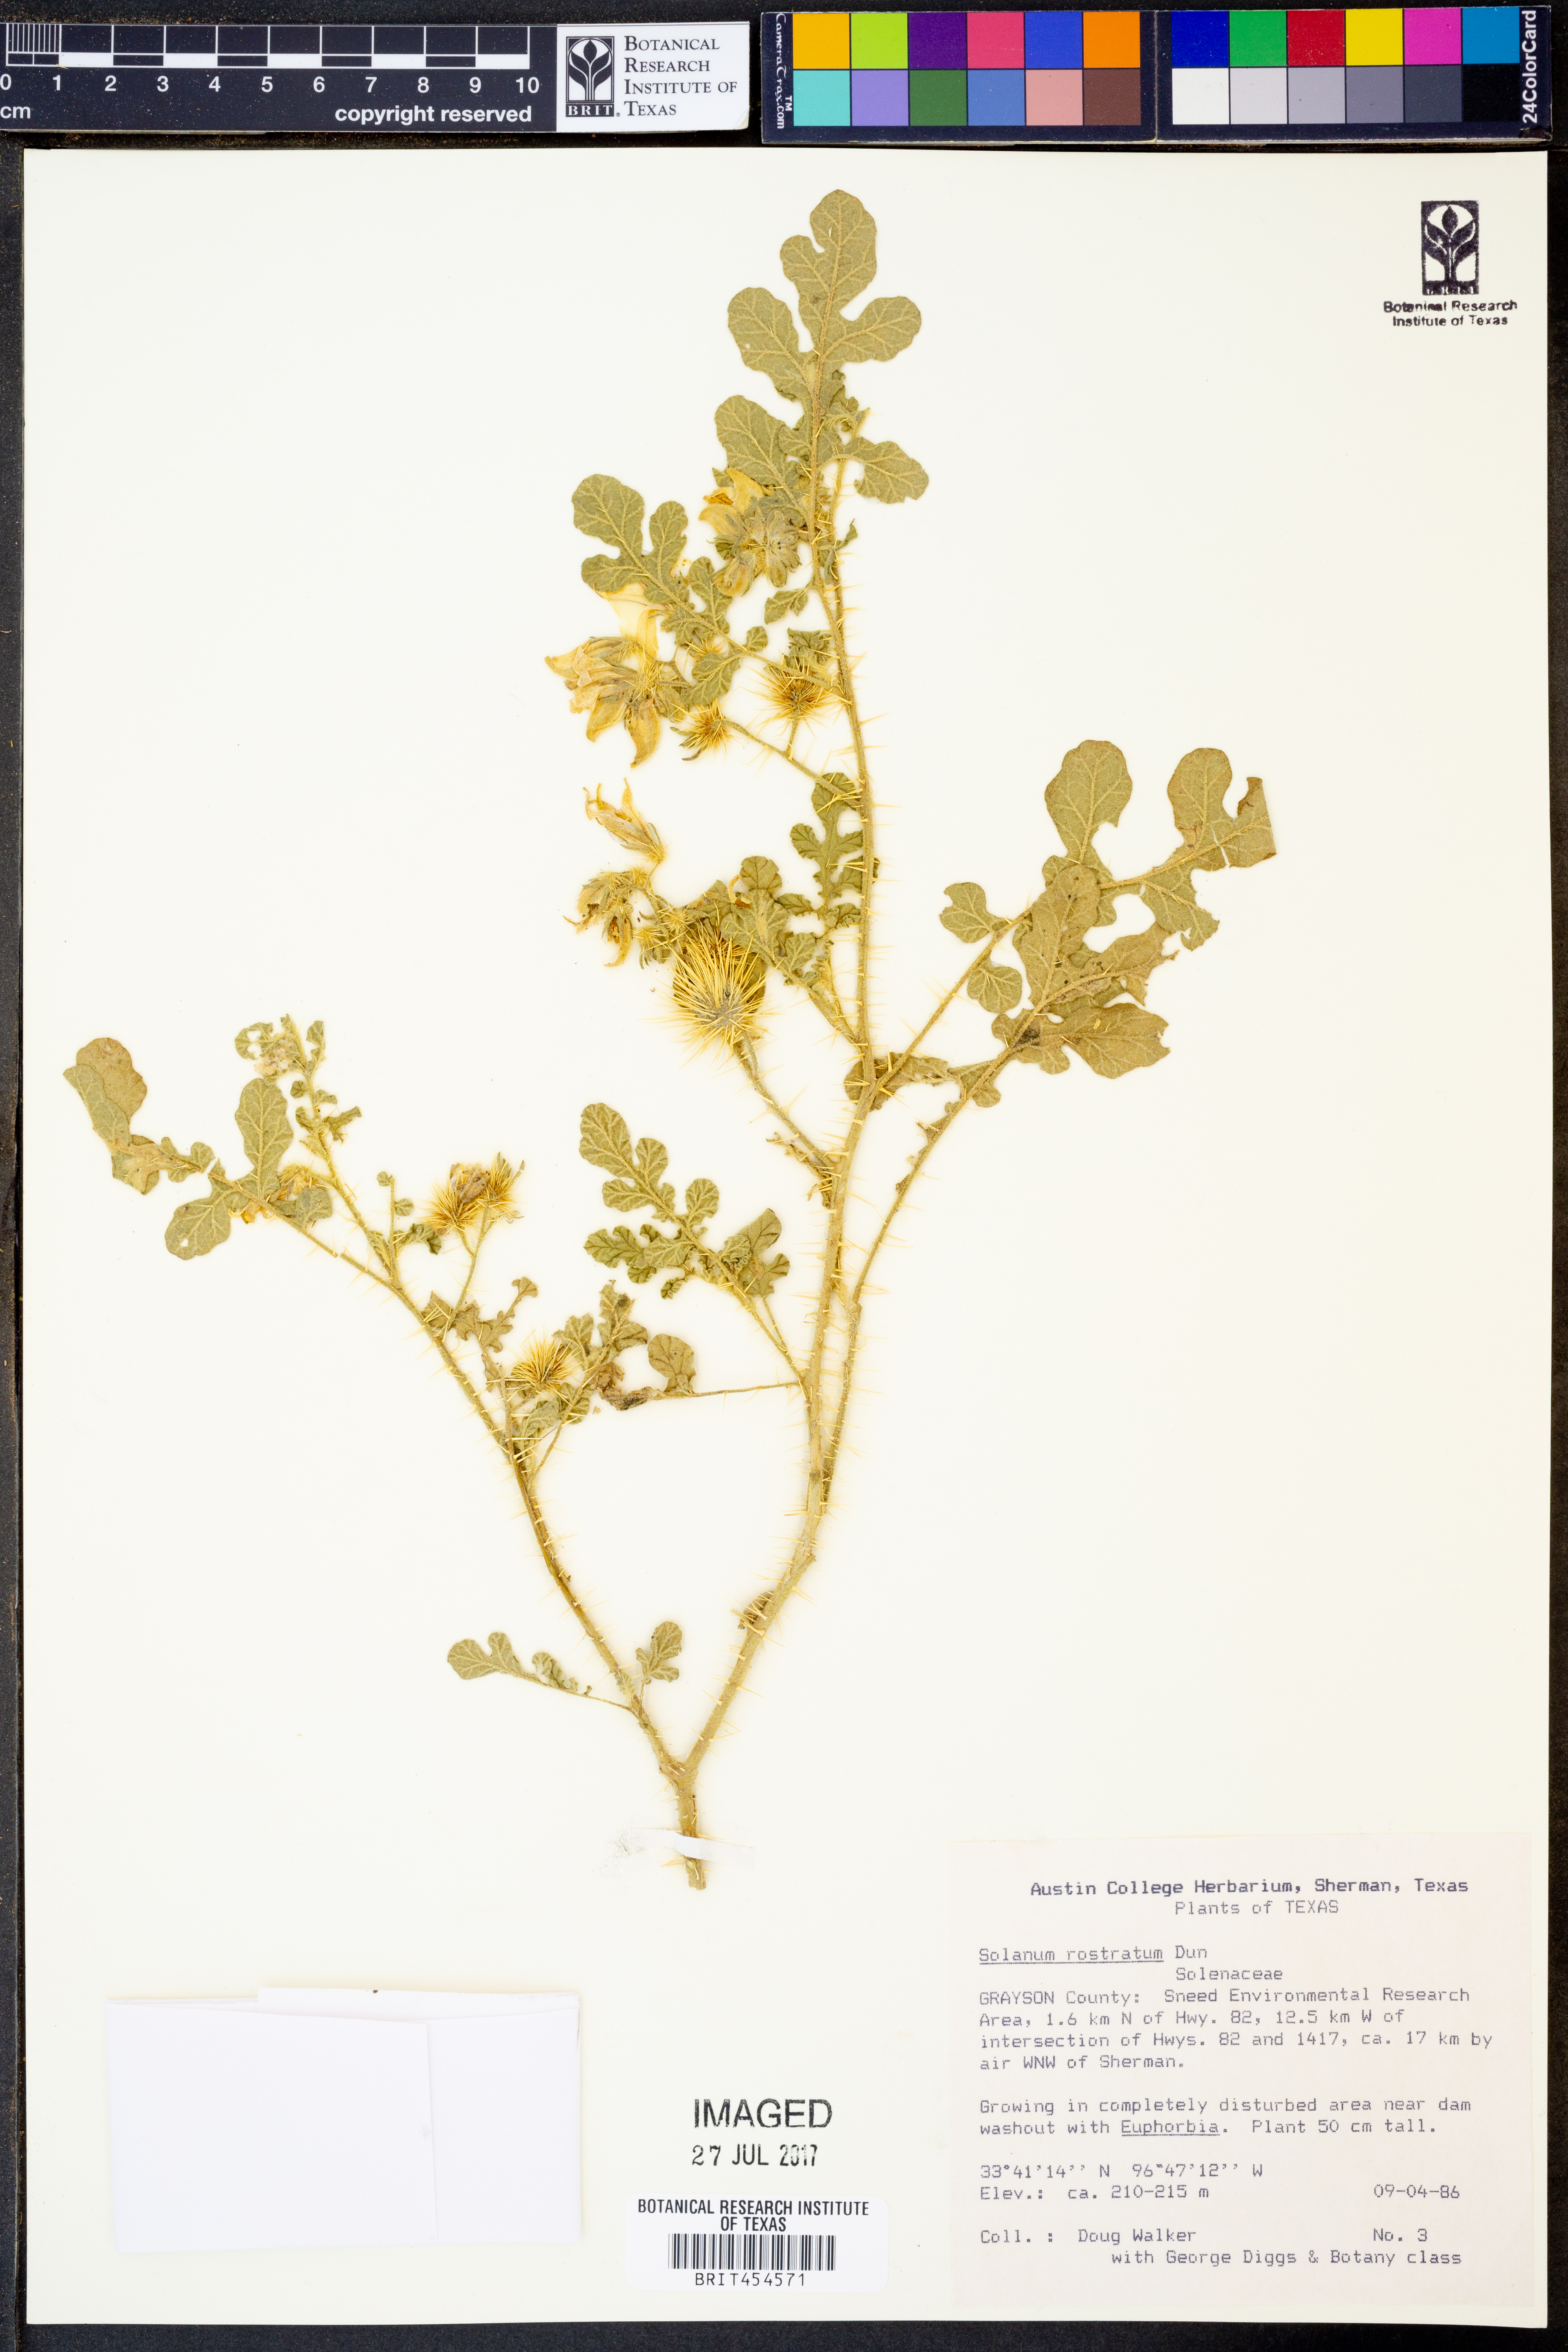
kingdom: Plantae
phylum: Tracheophyta
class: Magnoliopsida
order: Solanales
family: Solanaceae
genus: Solanum
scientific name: Solanum angustifolium
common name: Buffalobur nightshade
